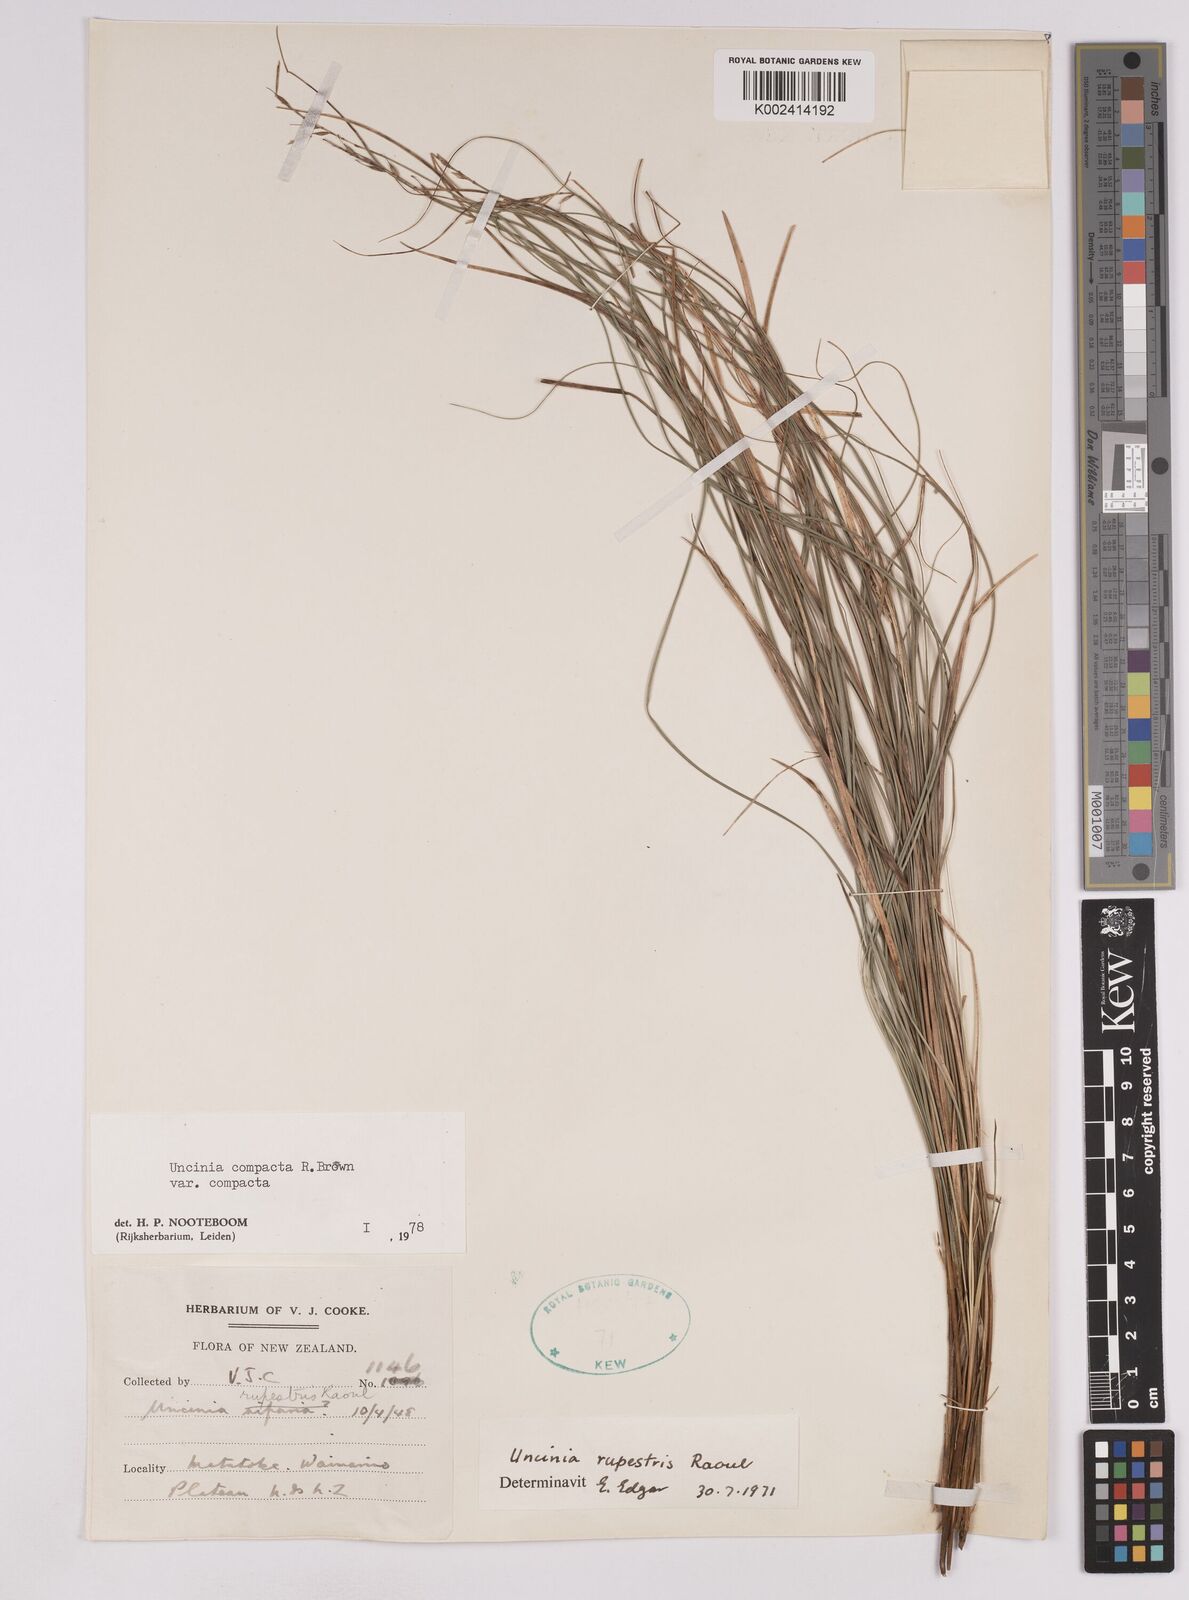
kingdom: Plantae
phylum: Tracheophyta
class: Liliopsida
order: Poales
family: Cyperaceae
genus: Carex
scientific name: Carex austrocompacta
